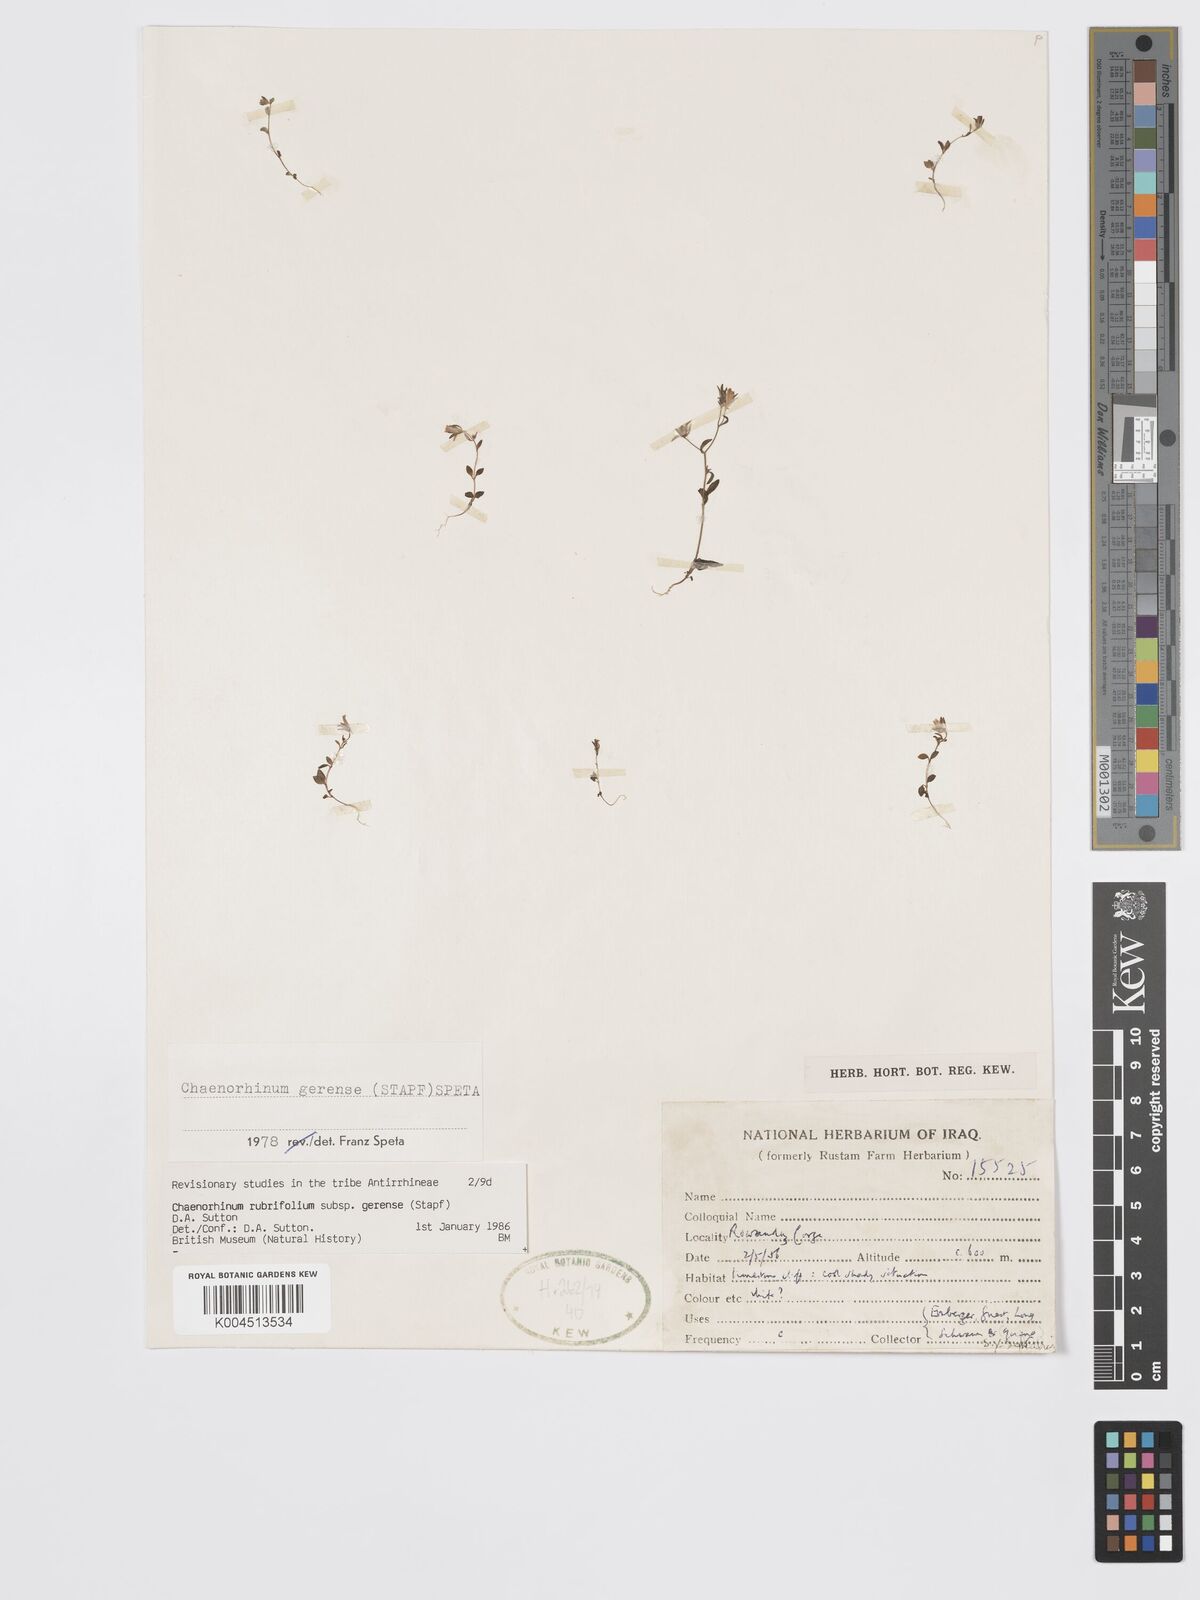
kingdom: Plantae
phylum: Tracheophyta
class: Magnoliopsida
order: Lamiales
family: Plantaginaceae
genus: Chaenorhinum
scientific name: Chaenorhinum rubrifolium
